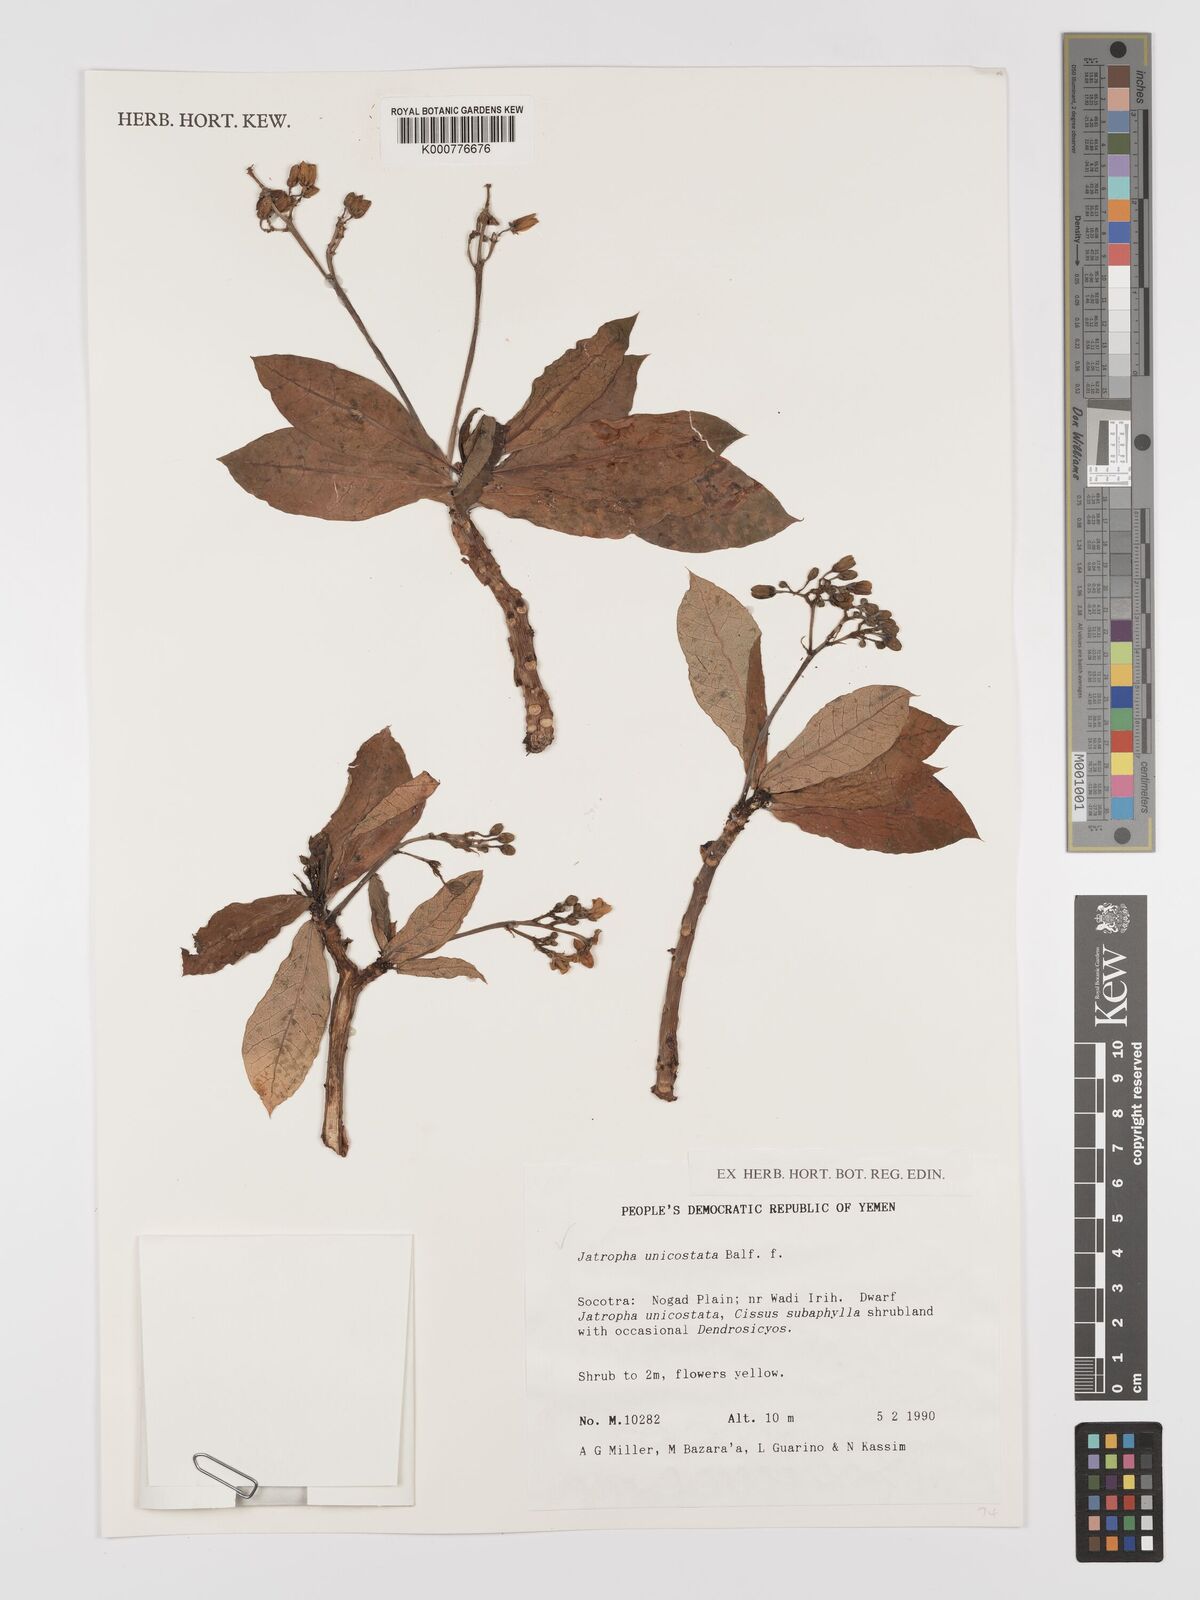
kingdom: Plantae
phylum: Tracheophyta
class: Magnoliopsida
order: Malpighiales
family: Euphorbiaceae
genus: Jatropha
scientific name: Jatropha unicostata
